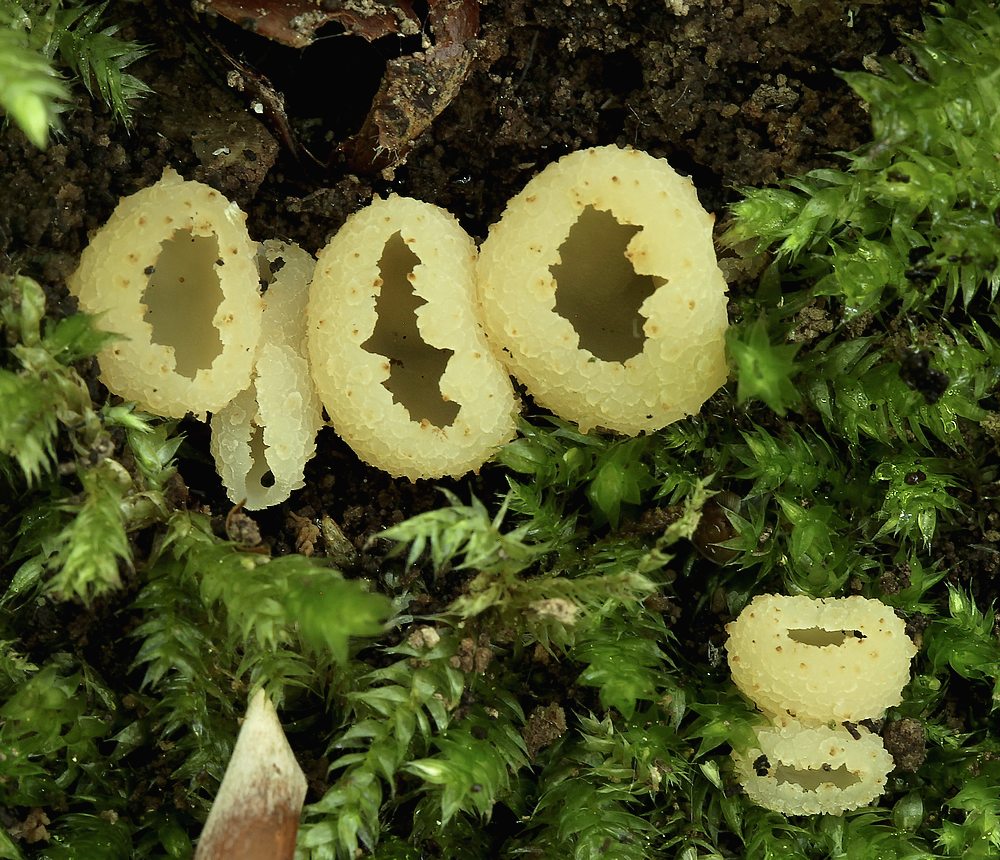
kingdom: Fungi
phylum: Ascomycota
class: Pezizomycetes
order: Pezizales
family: Pezizaceae
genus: Peziza
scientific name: Peziza
